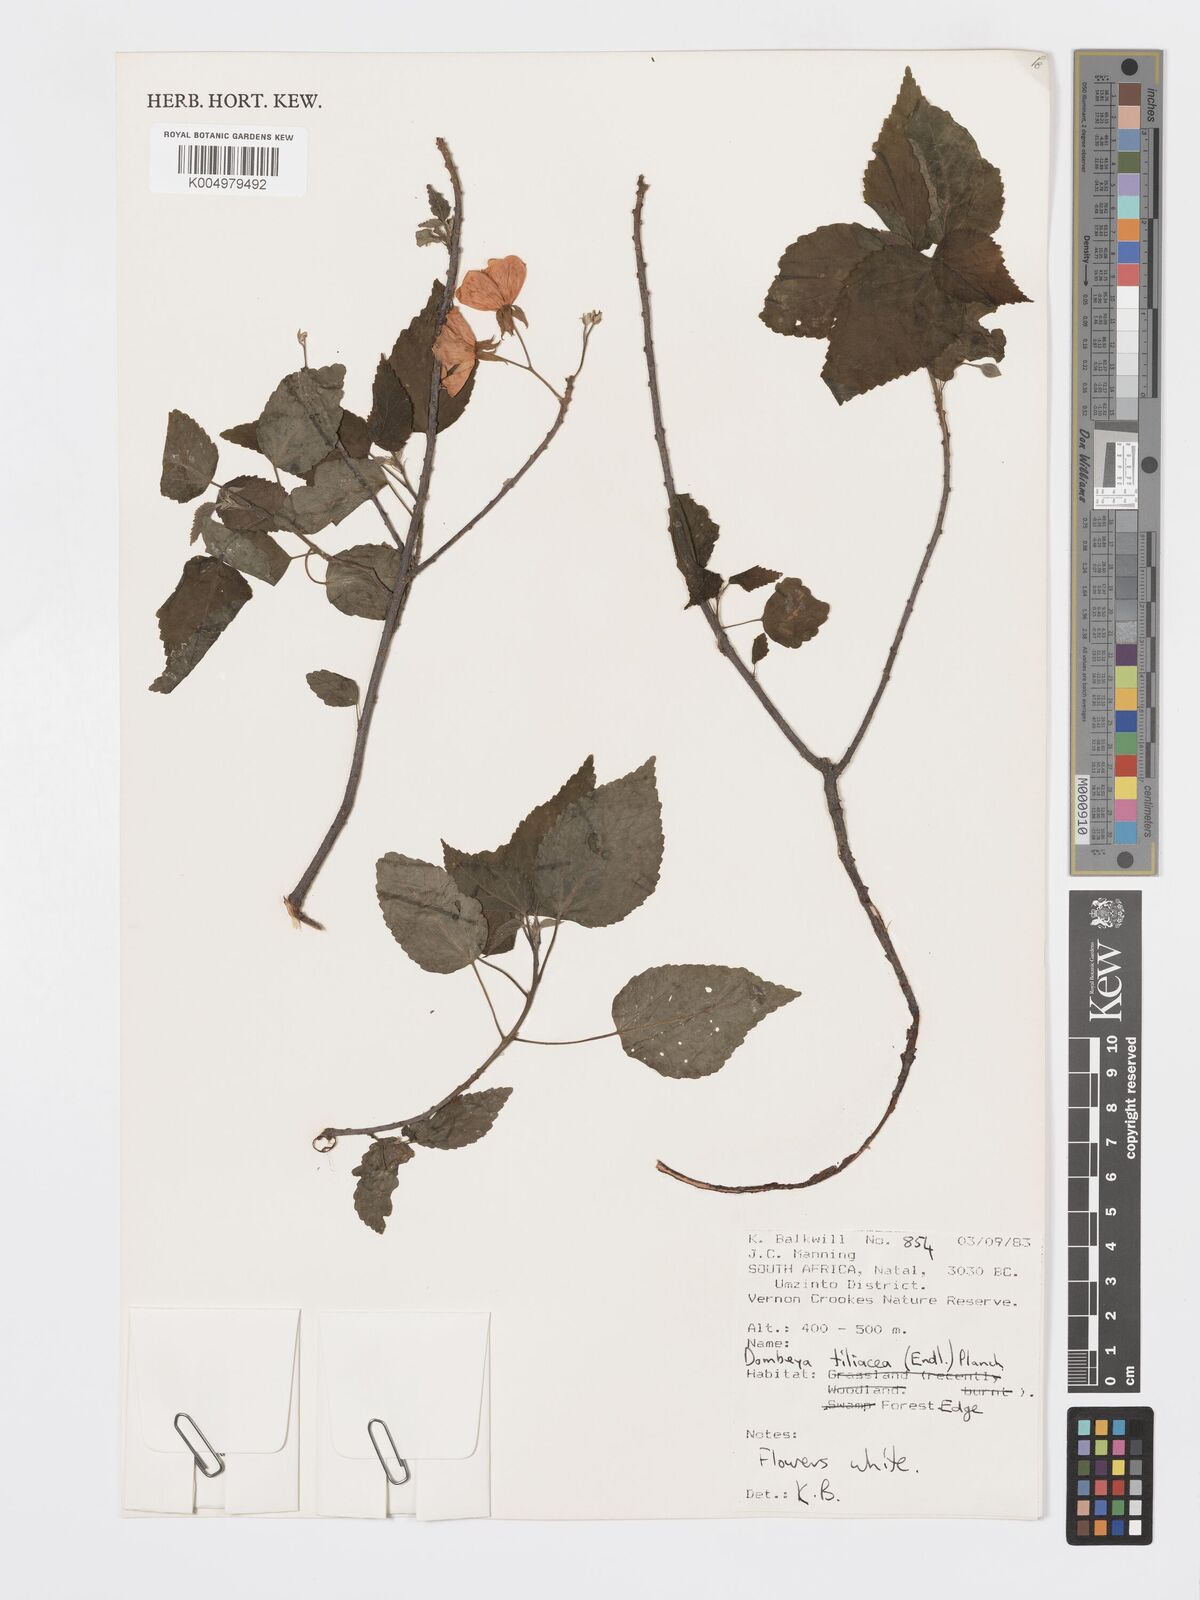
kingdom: Plantae
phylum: Tracheophyta
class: Magnoliopsida
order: Malvales
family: Malvaceae
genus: Dombeya
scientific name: Dombeya tiliacea
